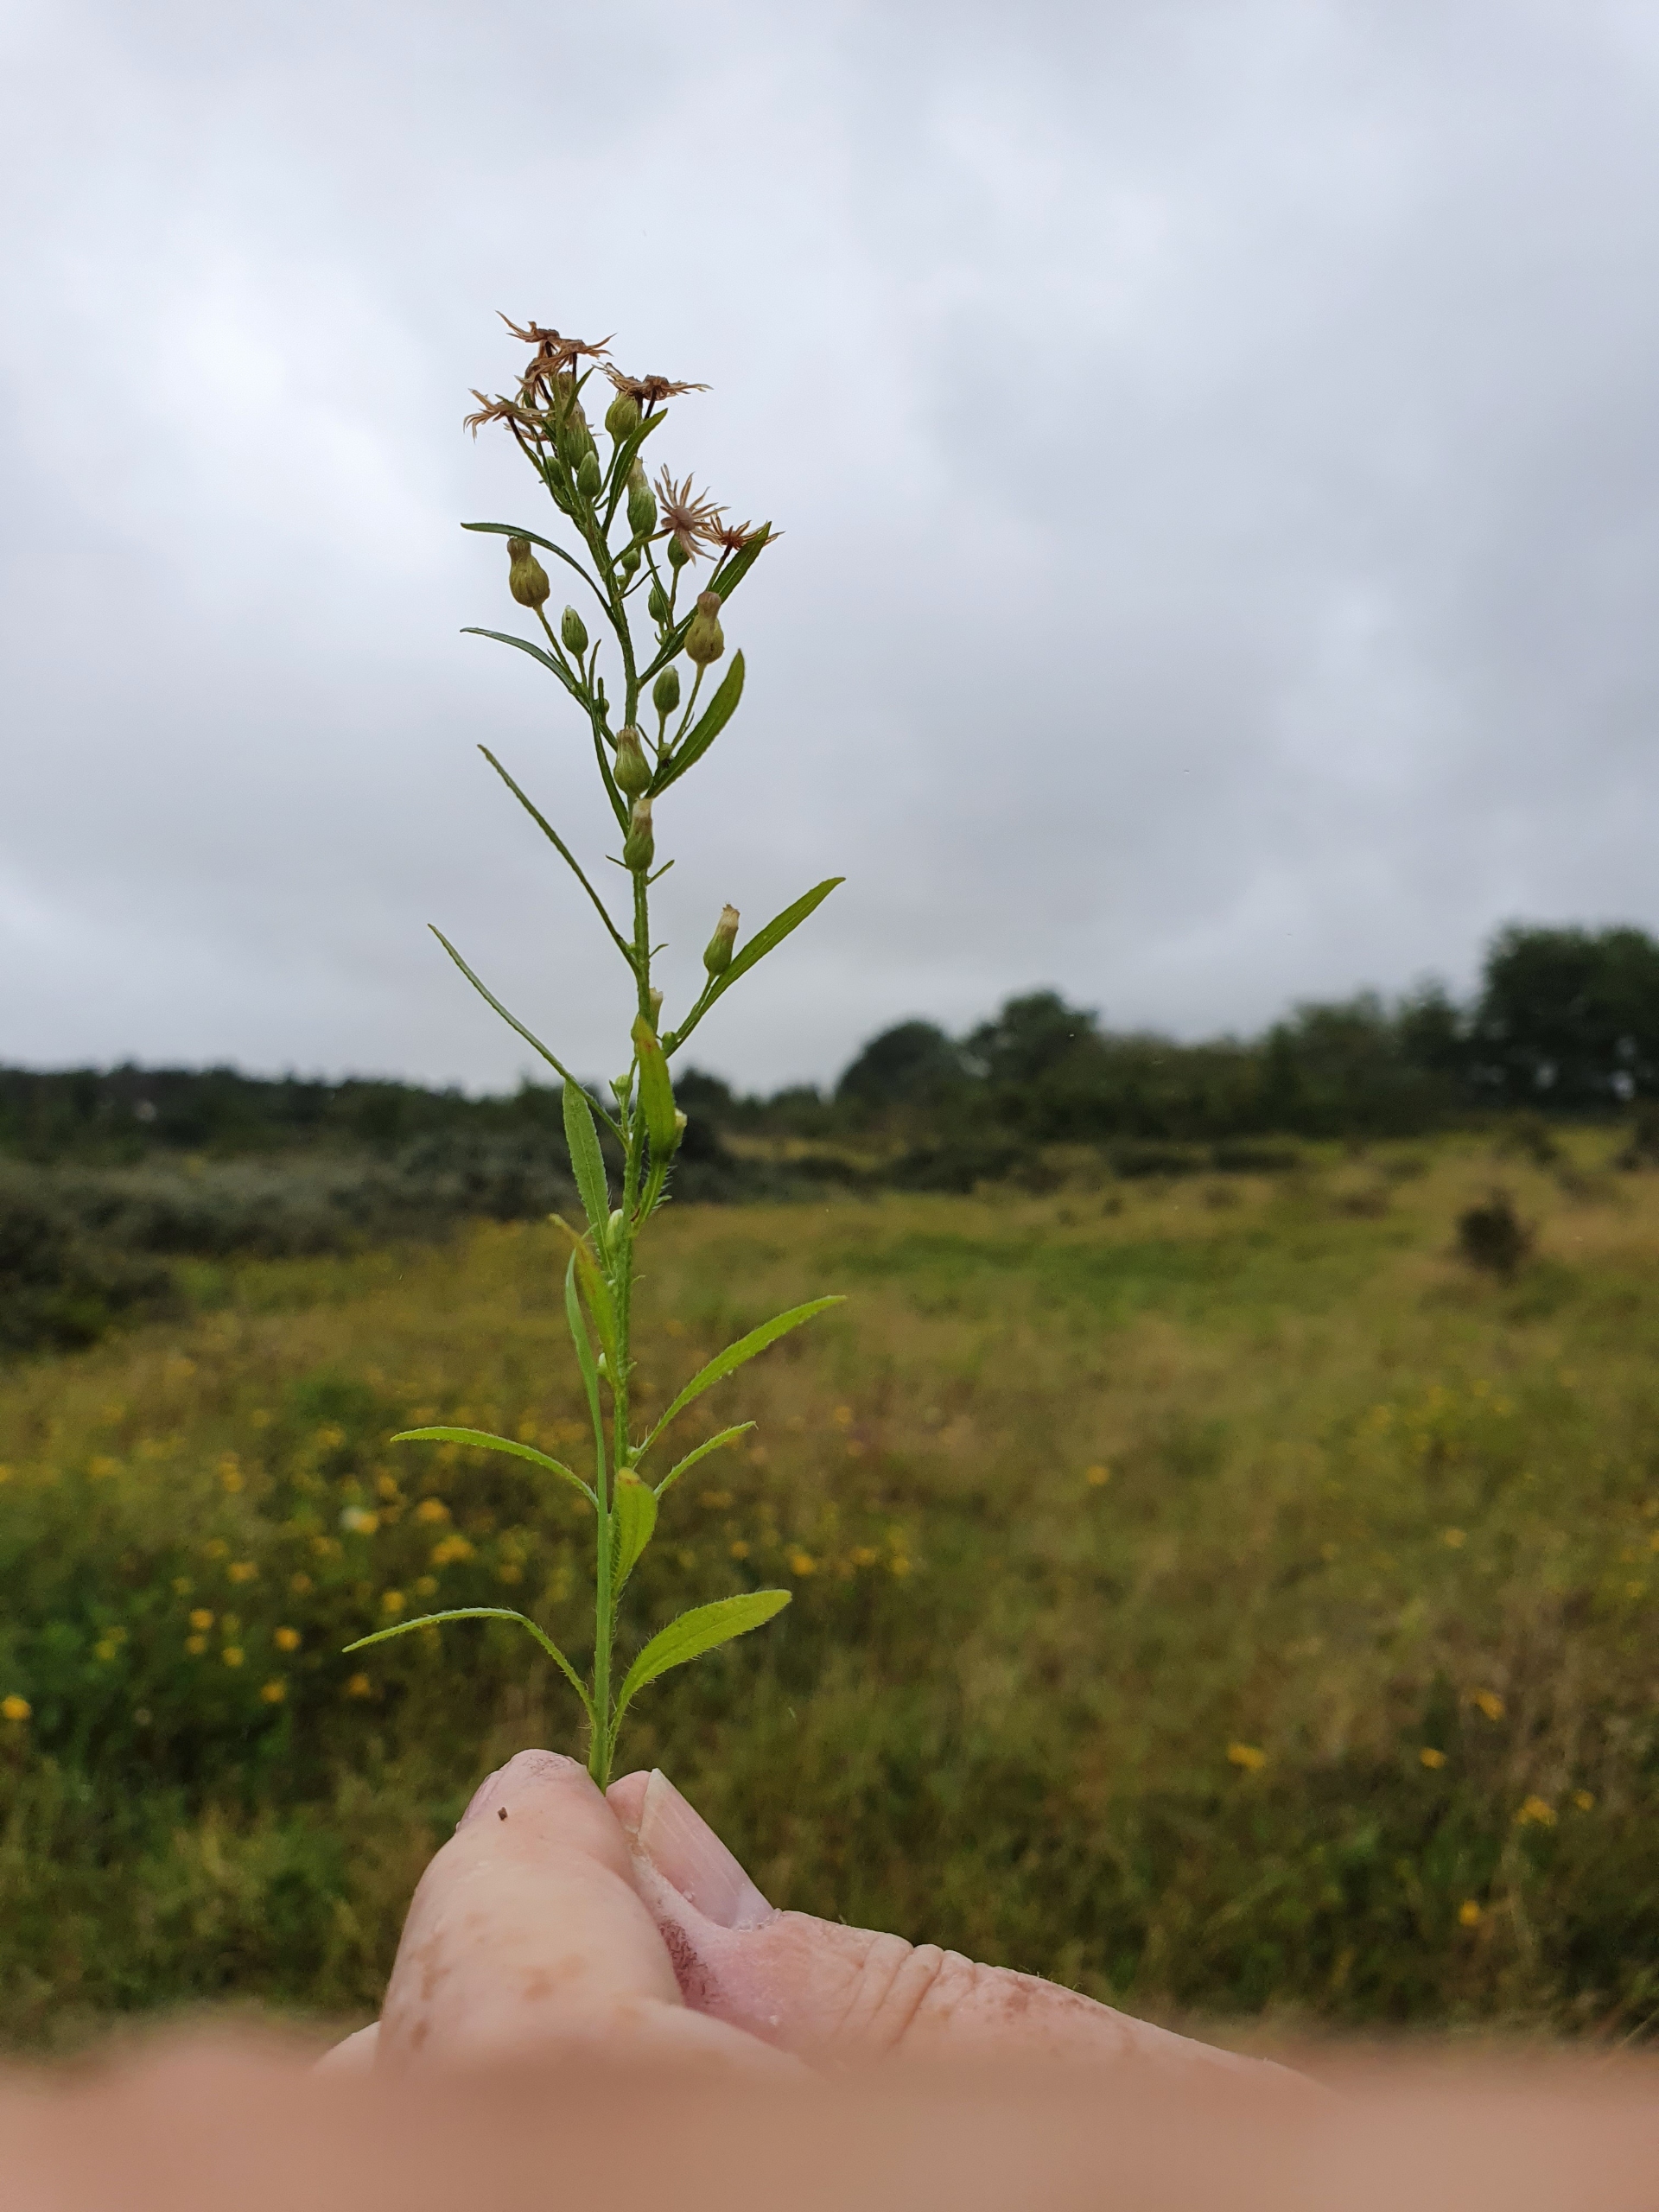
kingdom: Plantae
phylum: Tracheophyta
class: Magnoliopsida
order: Asterales
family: Asteraceae
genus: Erigeron
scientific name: Erigeron canadensis
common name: Kanadisk bakkestjerne
